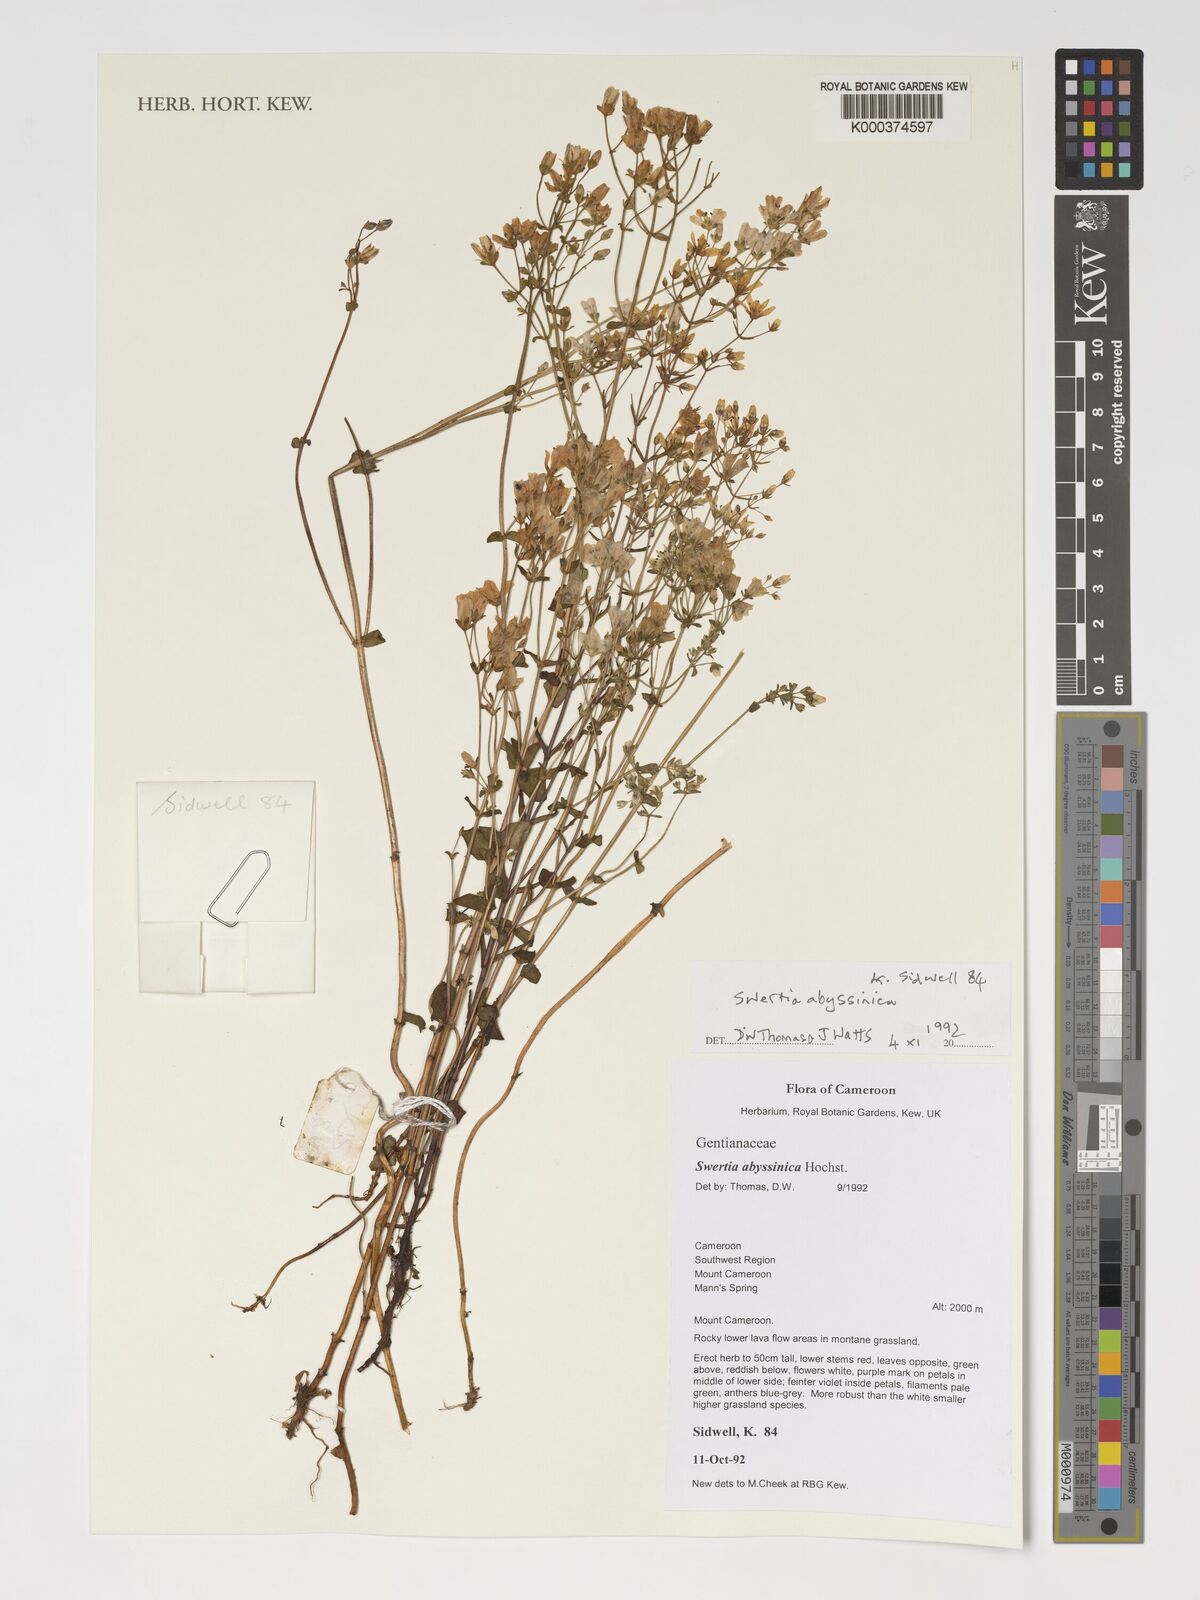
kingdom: Plantae
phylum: Tracheophyta
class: Magnoliopsida
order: Gentianales
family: Gentianaceae
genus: Swertia
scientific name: Swertia abyssinica
